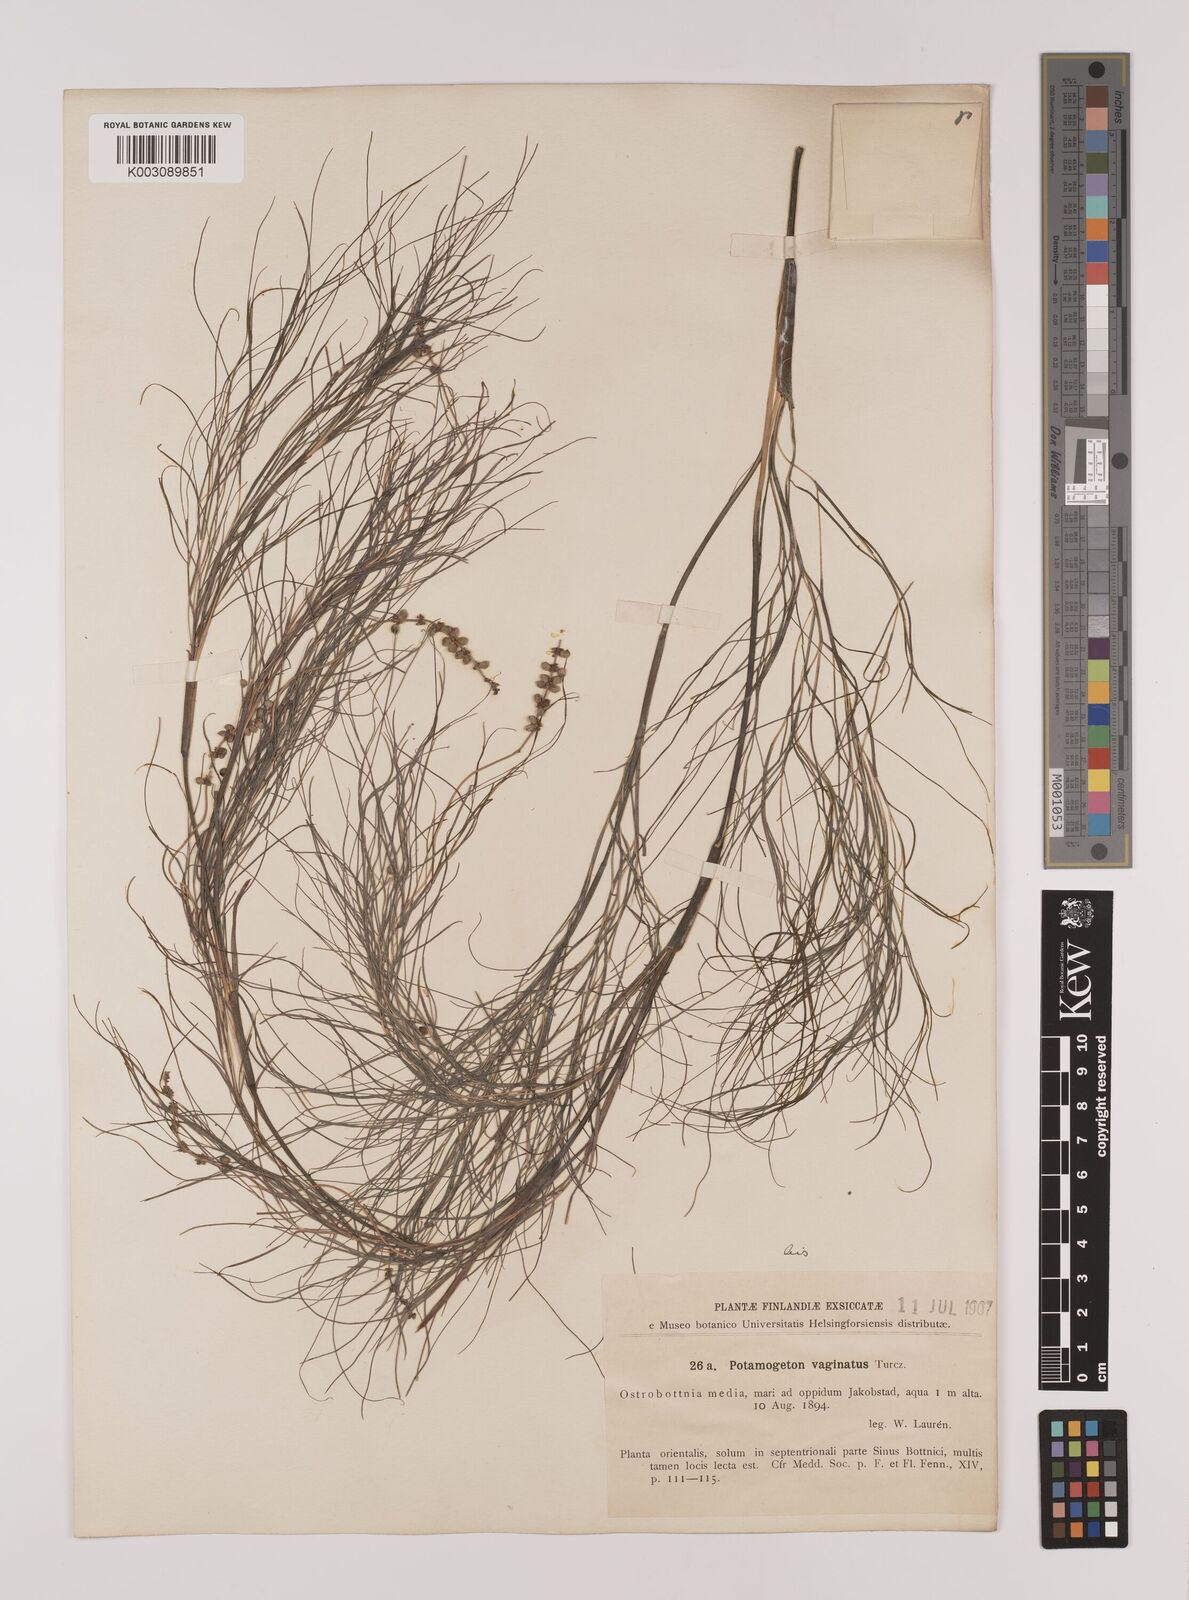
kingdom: Plantae
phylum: Tracheophyta
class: Liliopsida
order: Alismatales
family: Potamogetonaceae
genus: Stuckenia
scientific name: Stuckenia pectinata
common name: Sago pondweed
